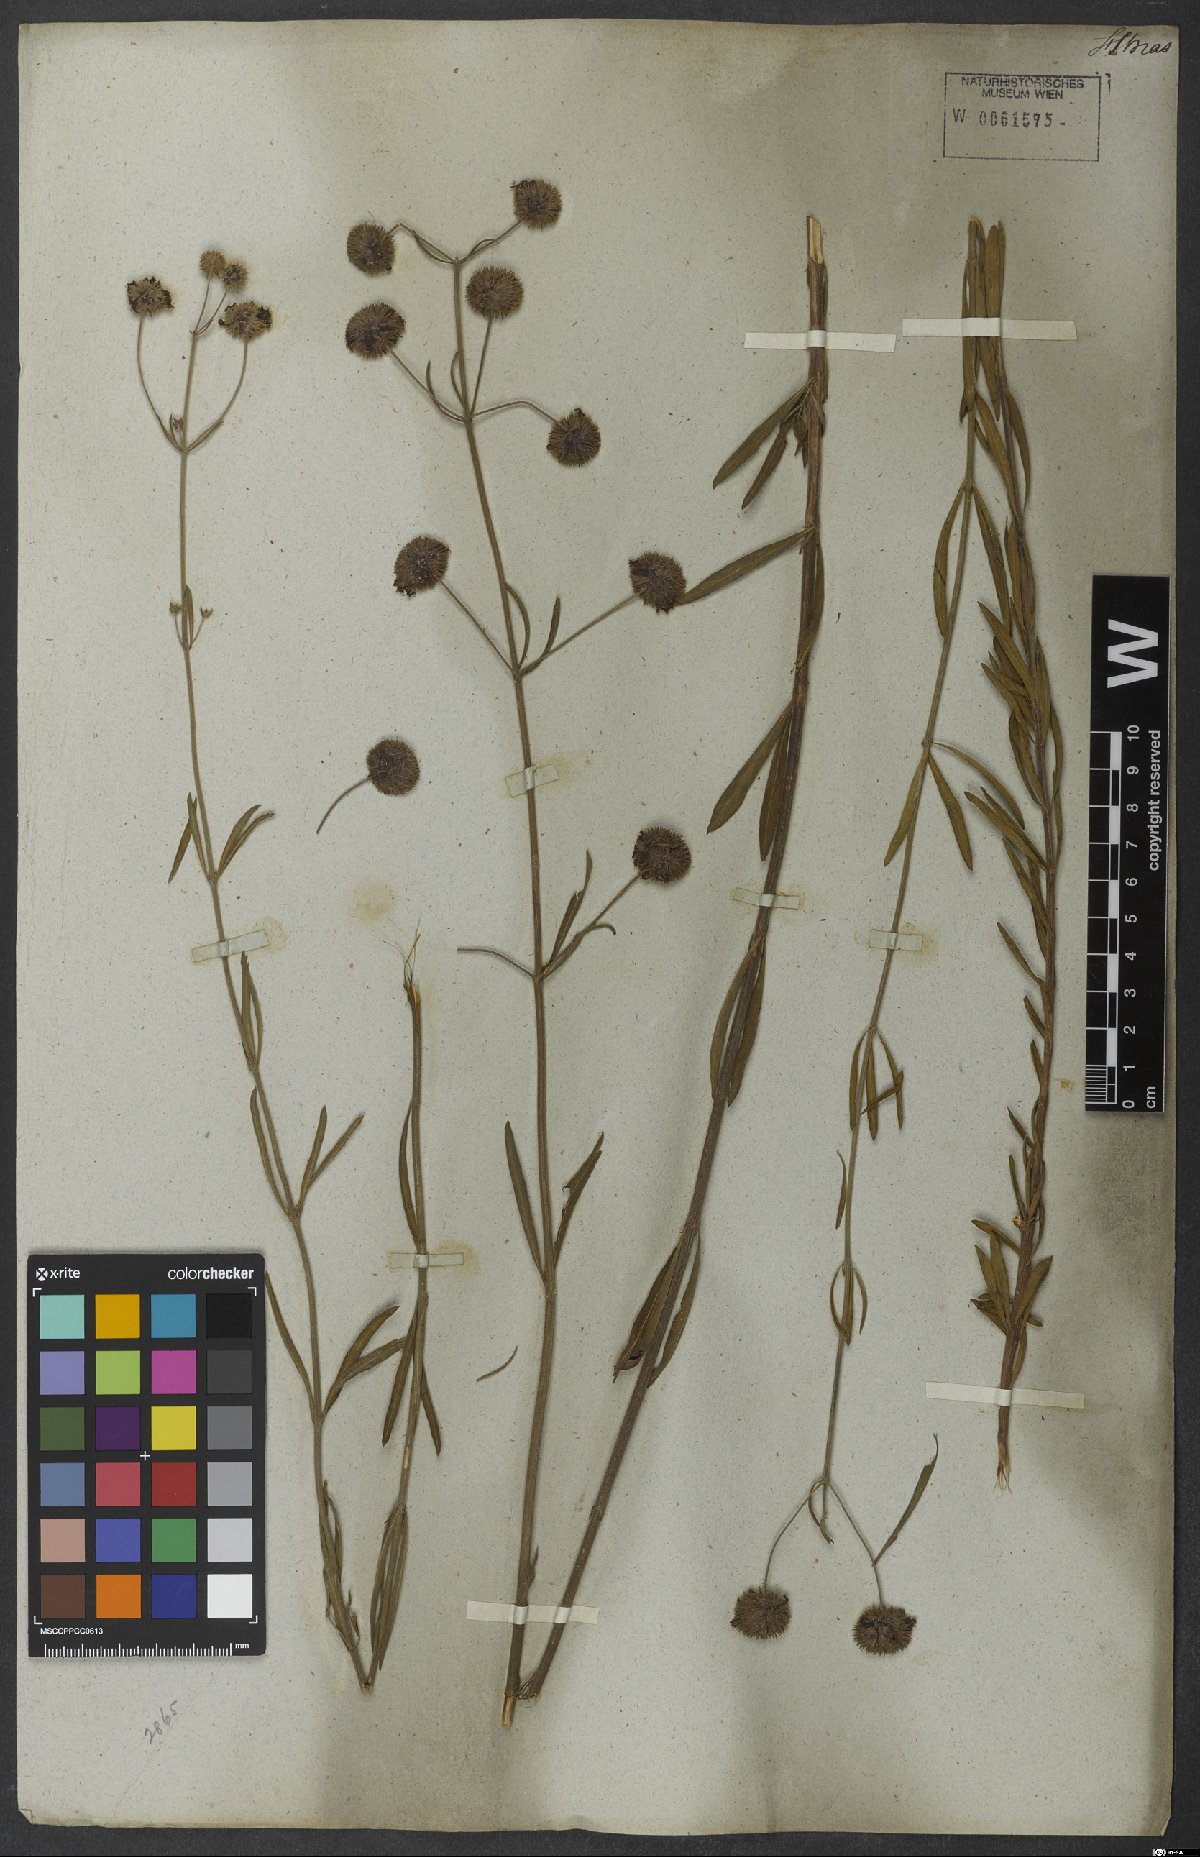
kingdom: Plantae
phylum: Tracheophyta
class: Magnoliopsida
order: Lamiales
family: Lamiaceae
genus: Hyptis
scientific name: Hyptis linarioides
